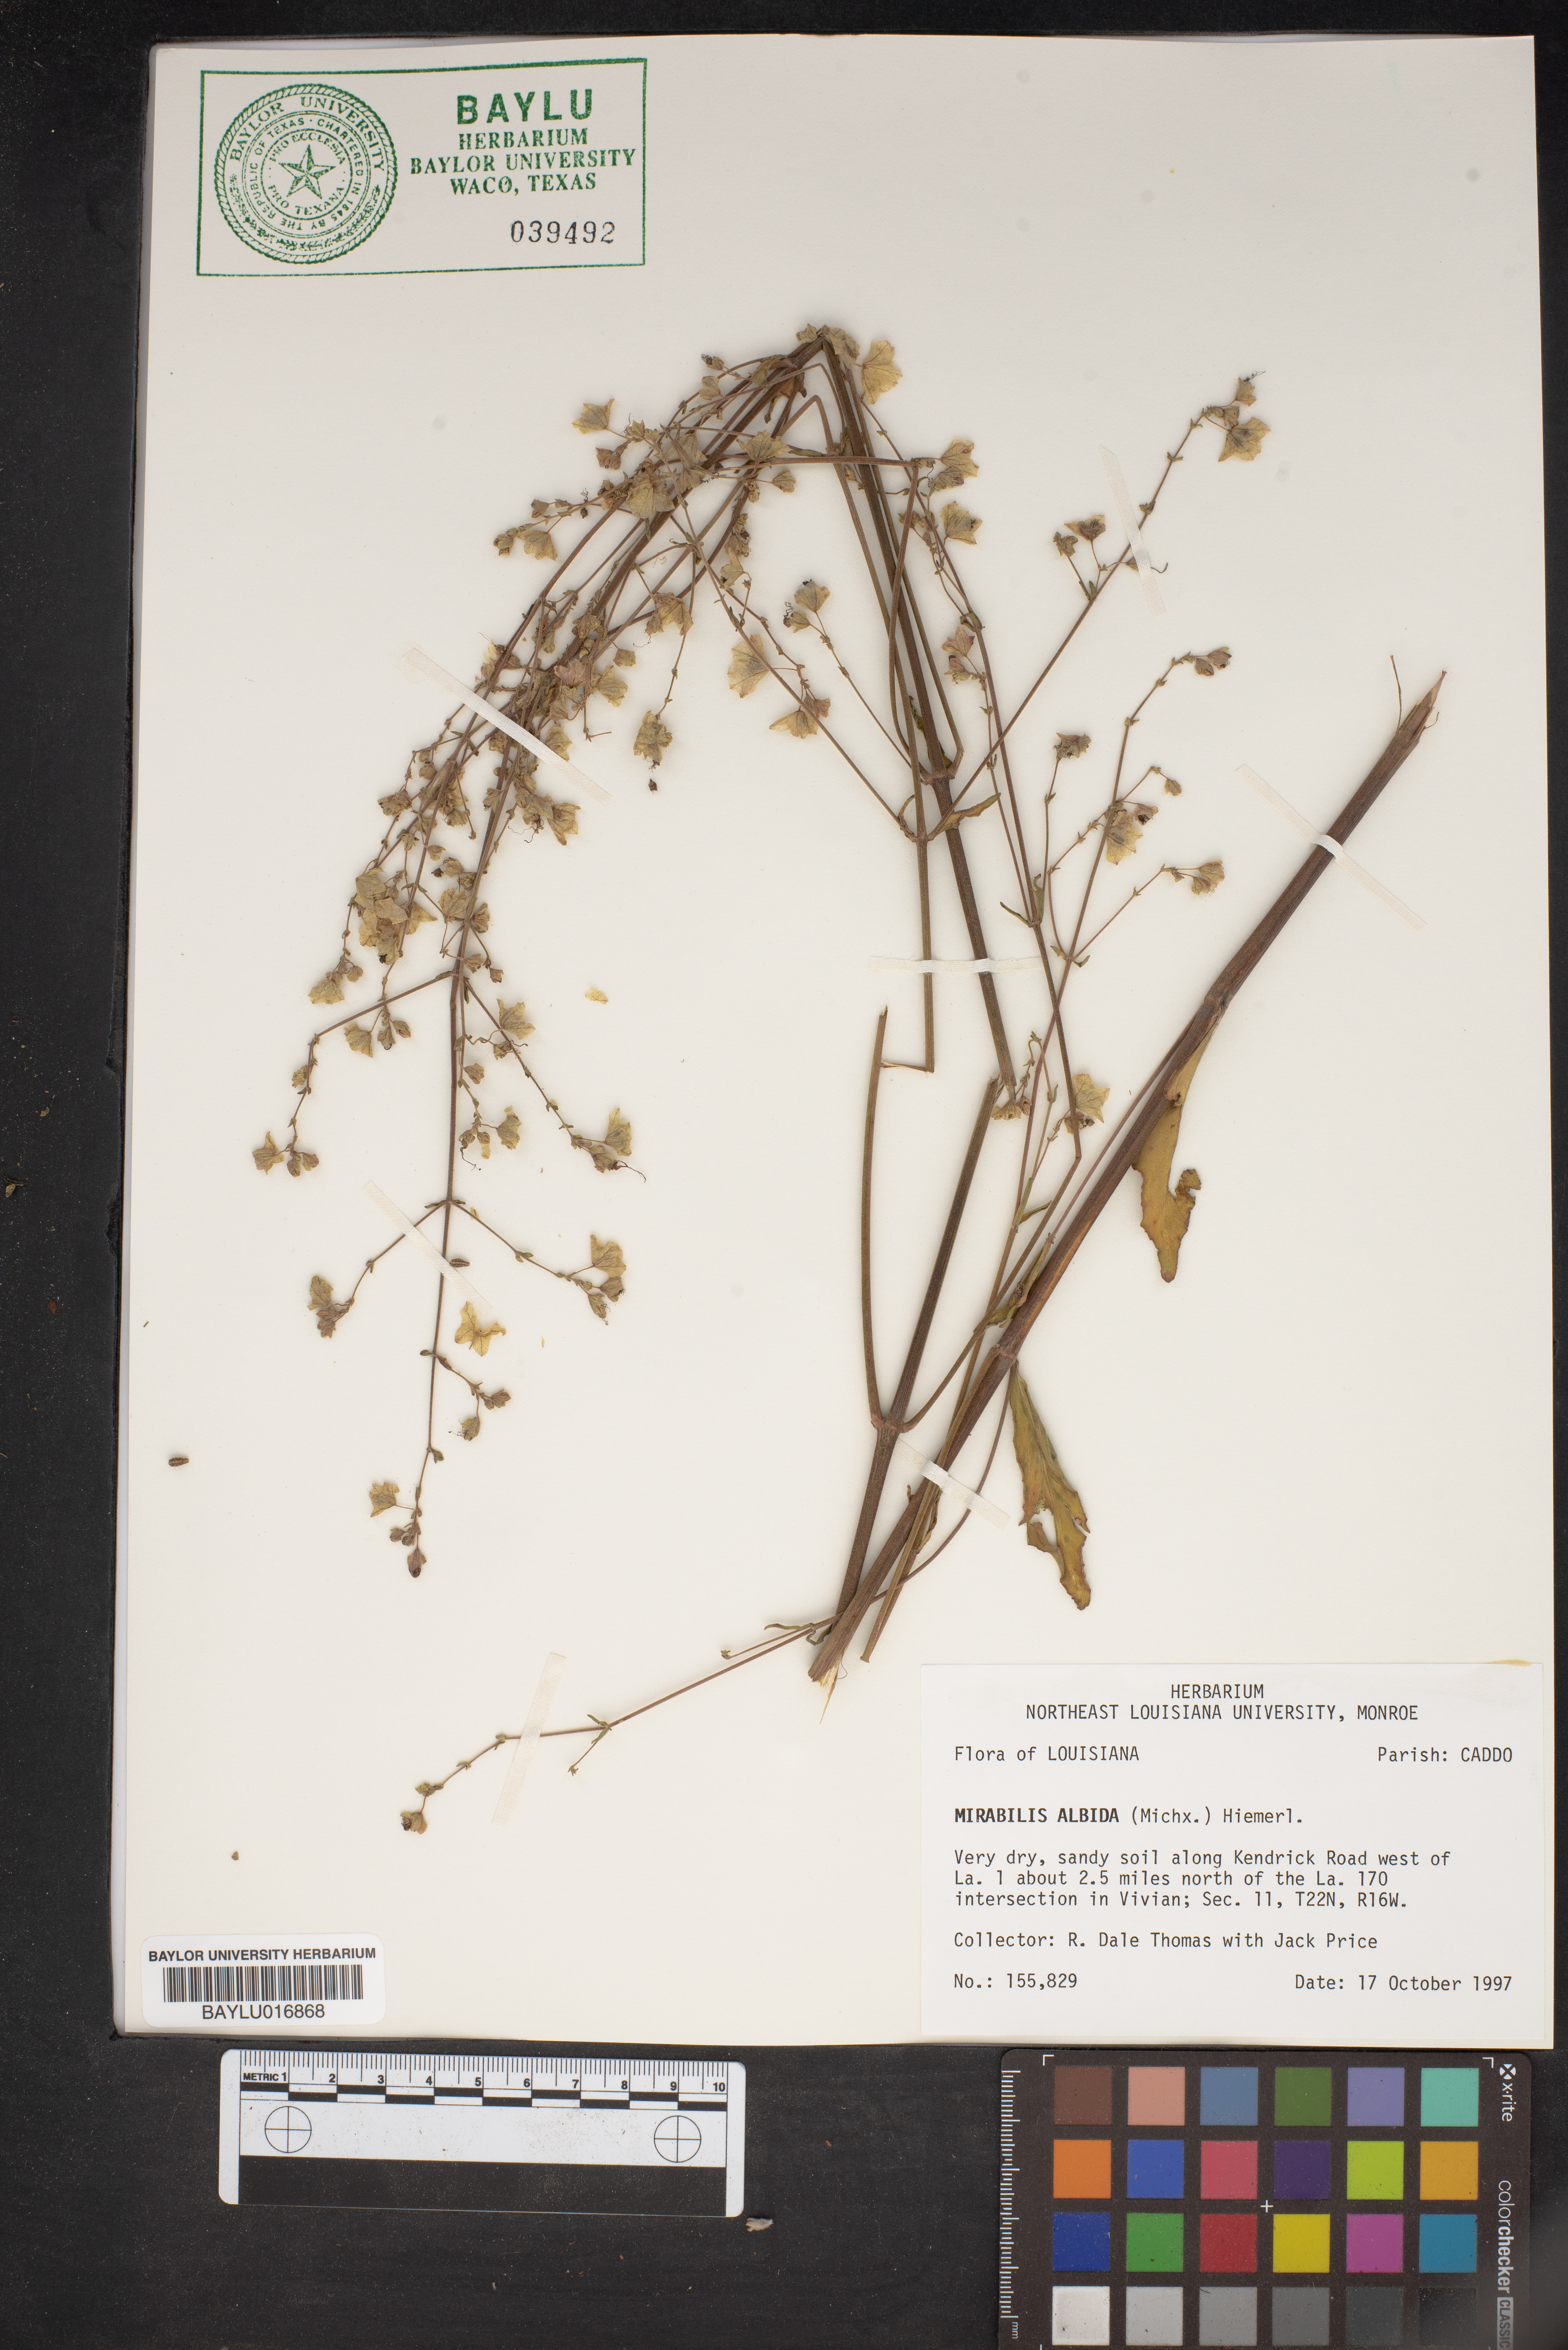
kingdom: Plantae
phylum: Tracheophyta
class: Magnoliopsida
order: Caryophyllales
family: Nyctaginaceae
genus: Mirabilis
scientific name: Mirabilis albida
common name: Hairy four-o'clock
